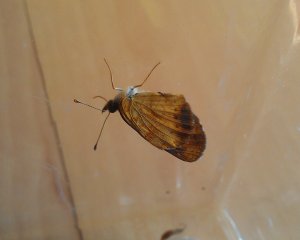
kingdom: Animalia
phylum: Arthropoda
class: Insecta
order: Lepidoptera
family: Nymphalidae
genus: Phyciodes
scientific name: Phyciodes tharos
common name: Northern Crescent
